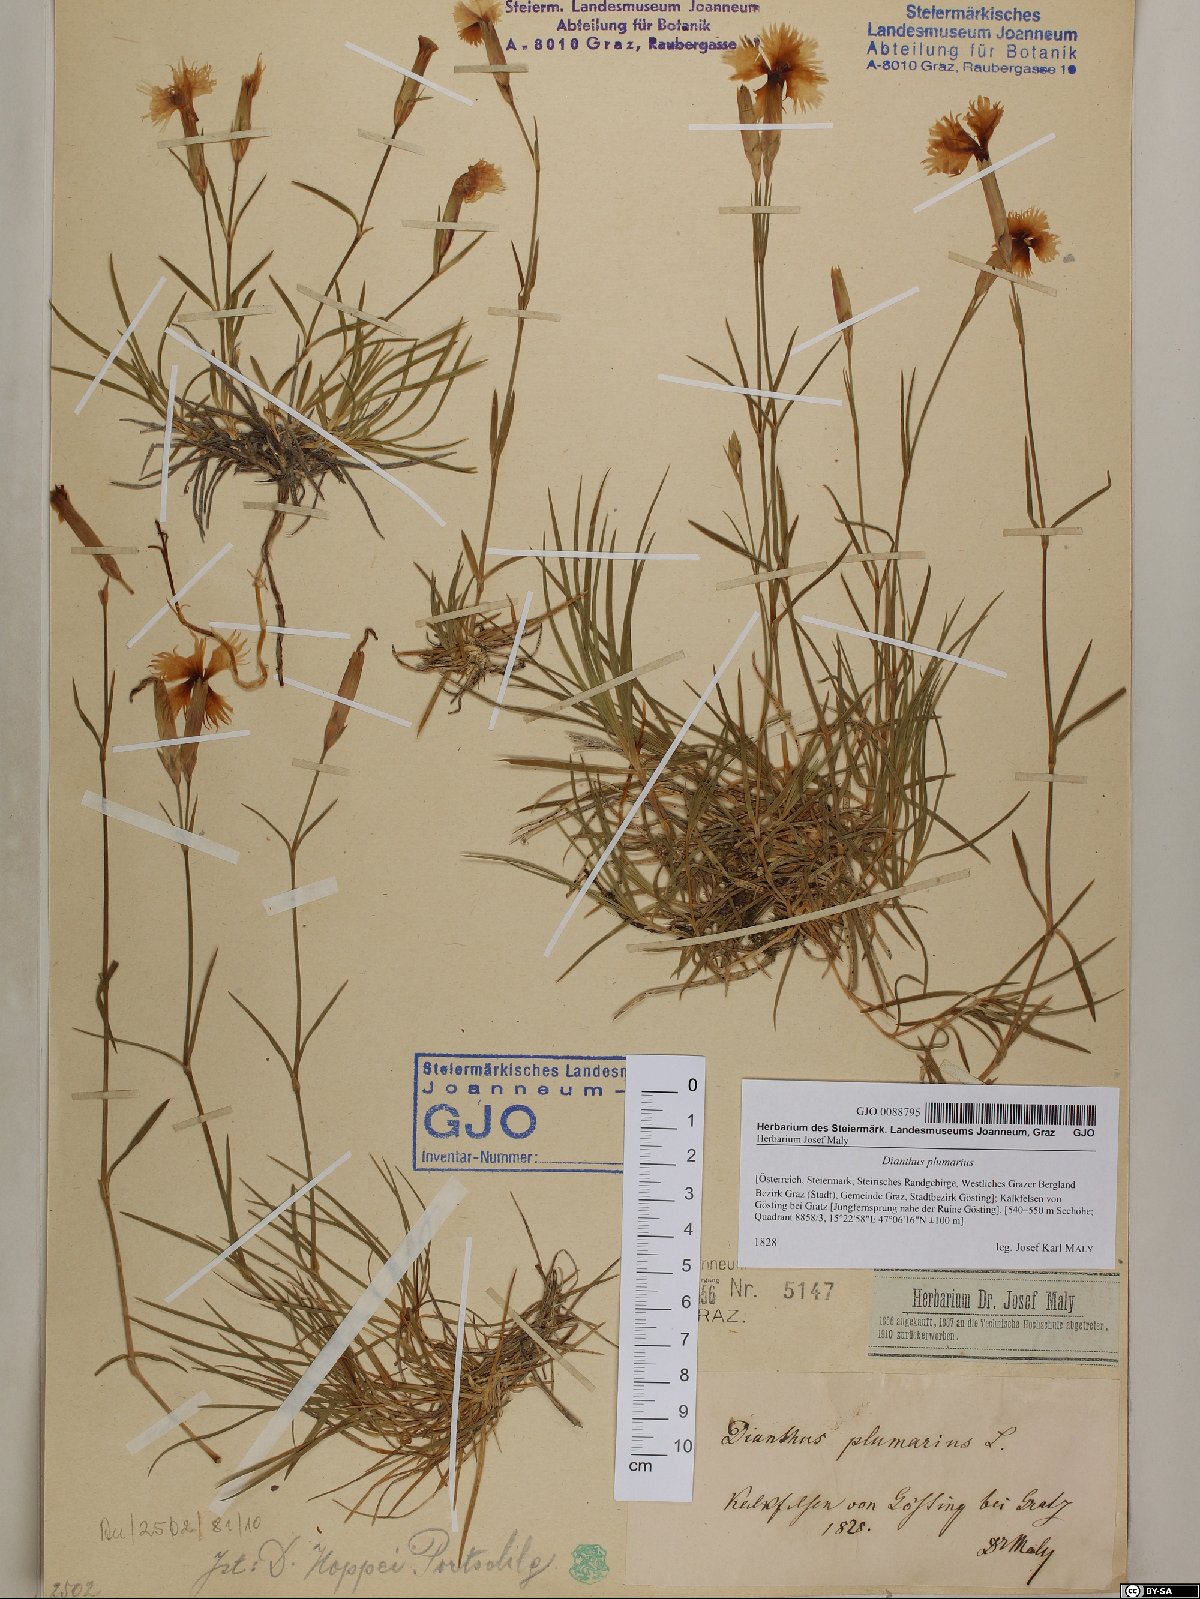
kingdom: Plantae
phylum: Tracheophyta
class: Magnoliopsida
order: Caryophyllales
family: Caryophyllaceae
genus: Dianthus
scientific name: Dianthus plumarius
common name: Pink
